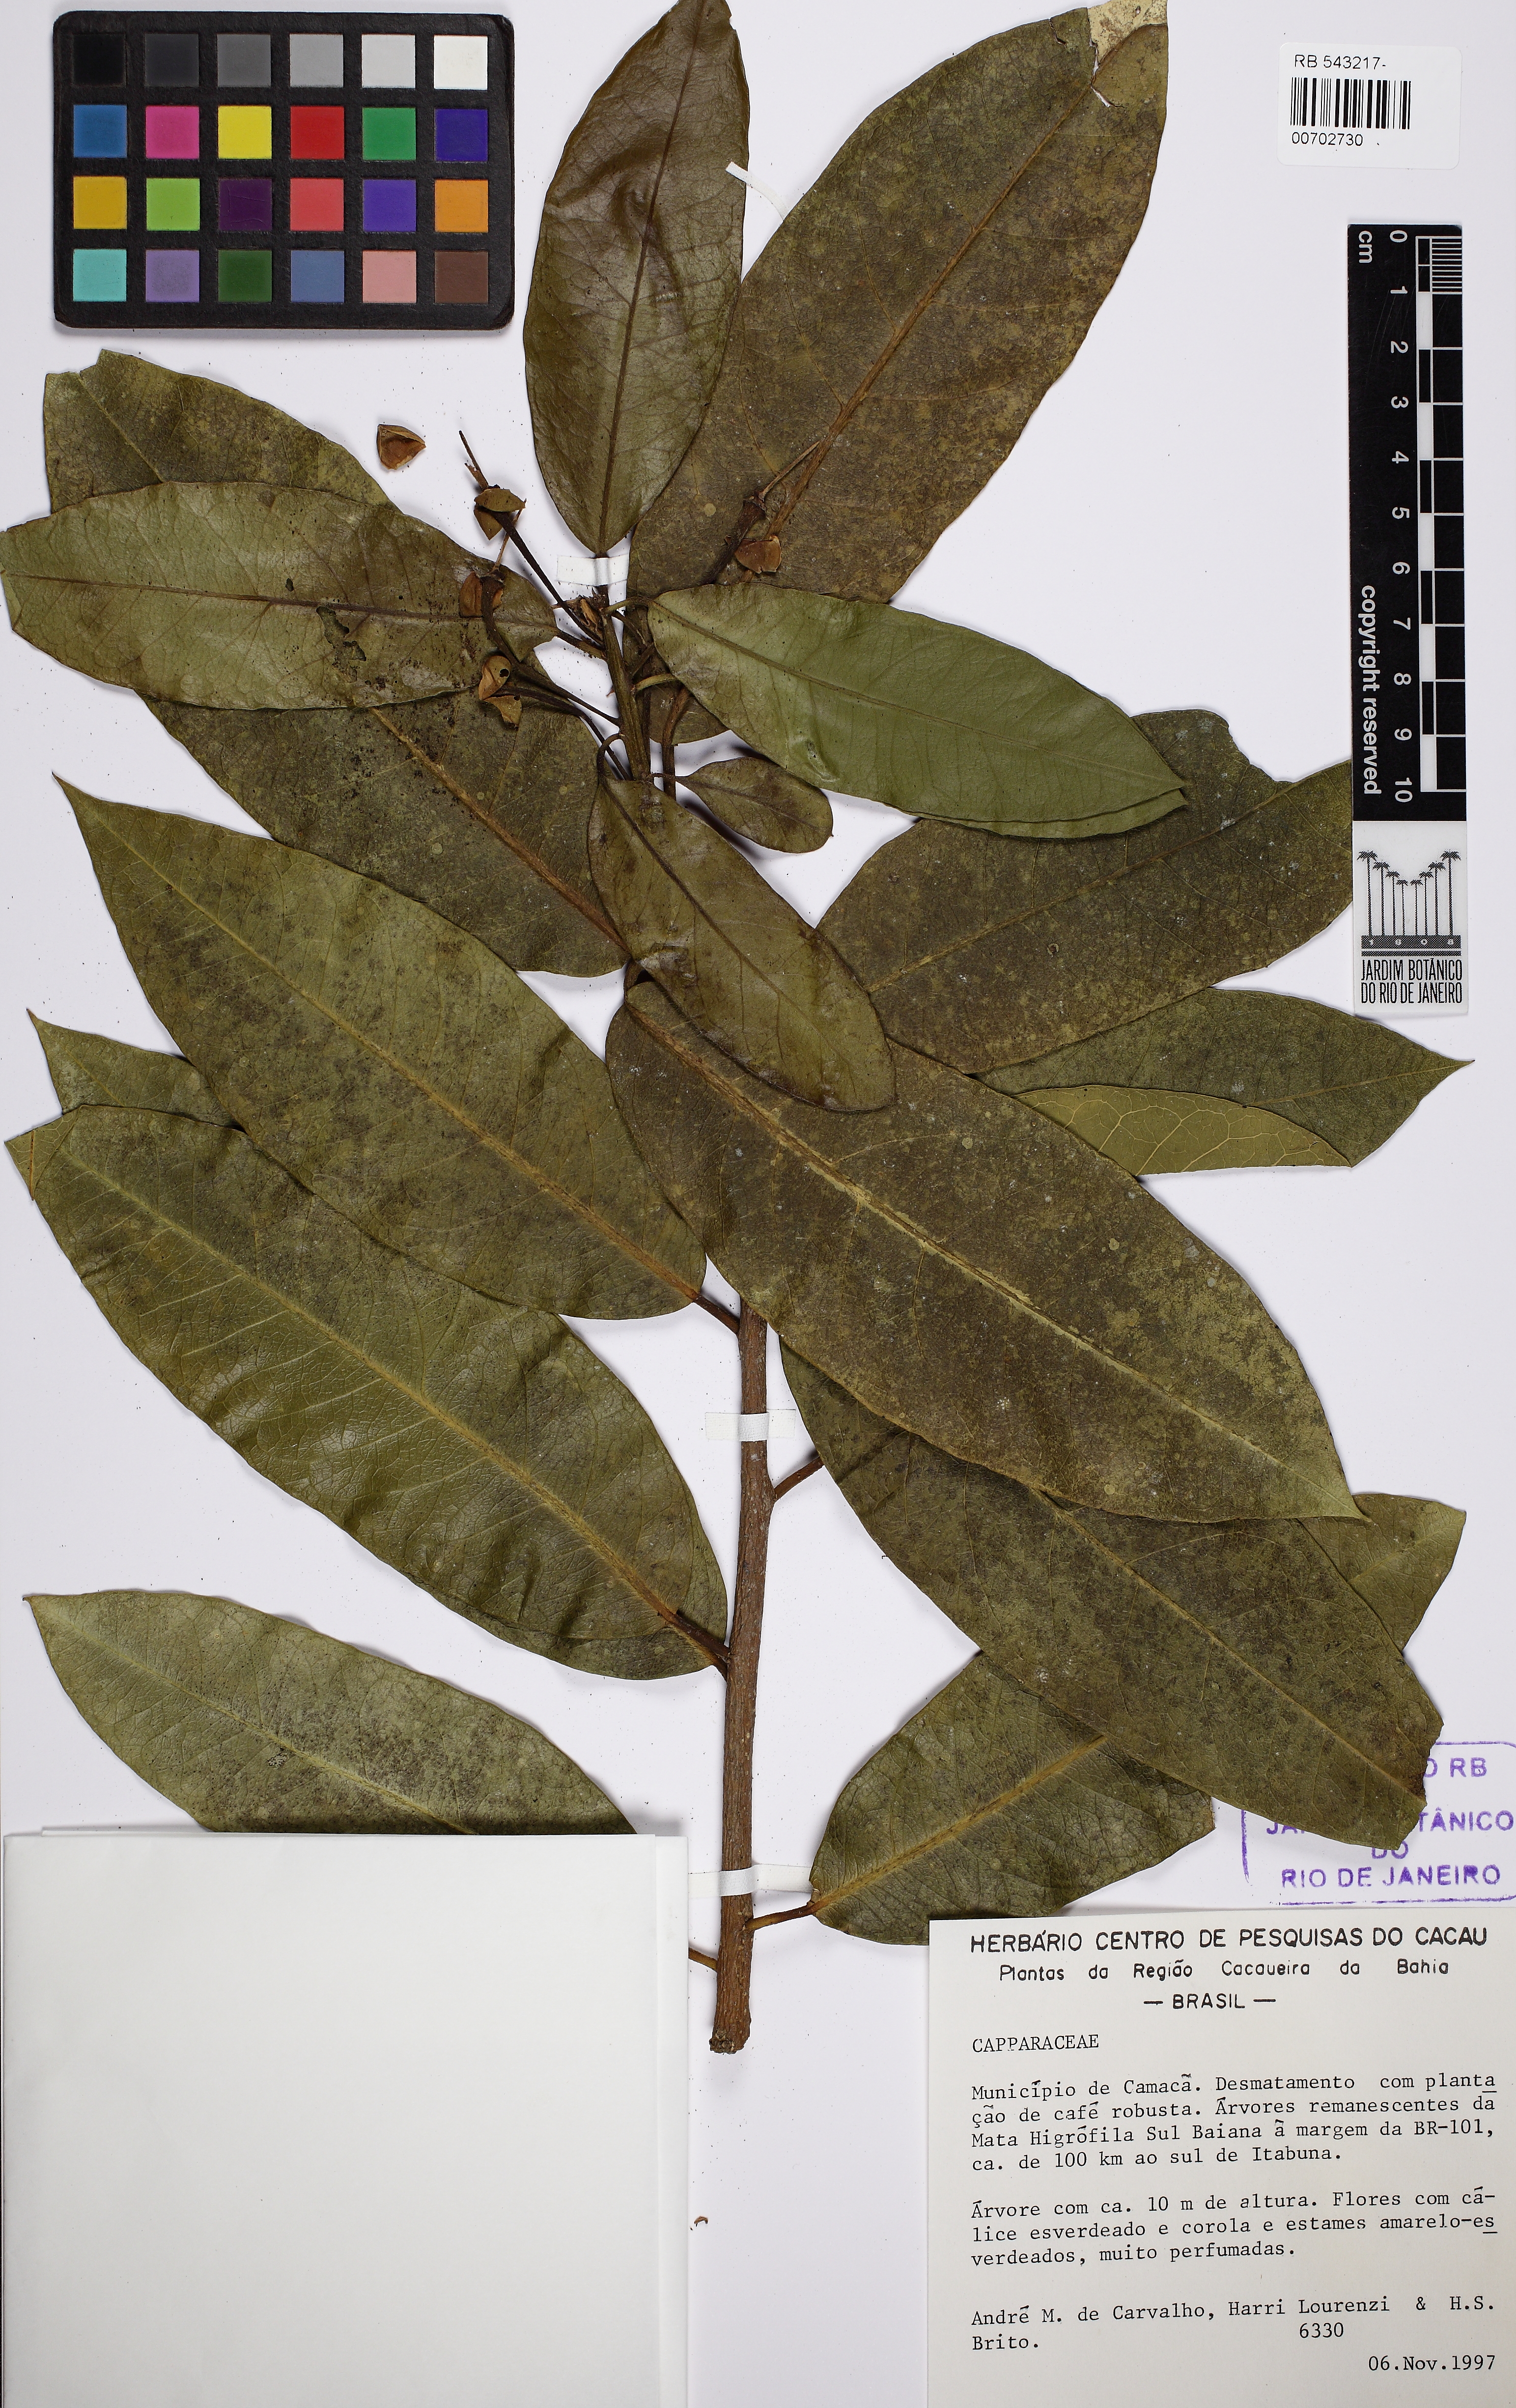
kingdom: Plantae
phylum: Tracheophyta
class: Magnoliopsida
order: Brassicales
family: Capparaceae
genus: Neocalyptrocalyx
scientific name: Neocalyptrocalyx atlanticus
